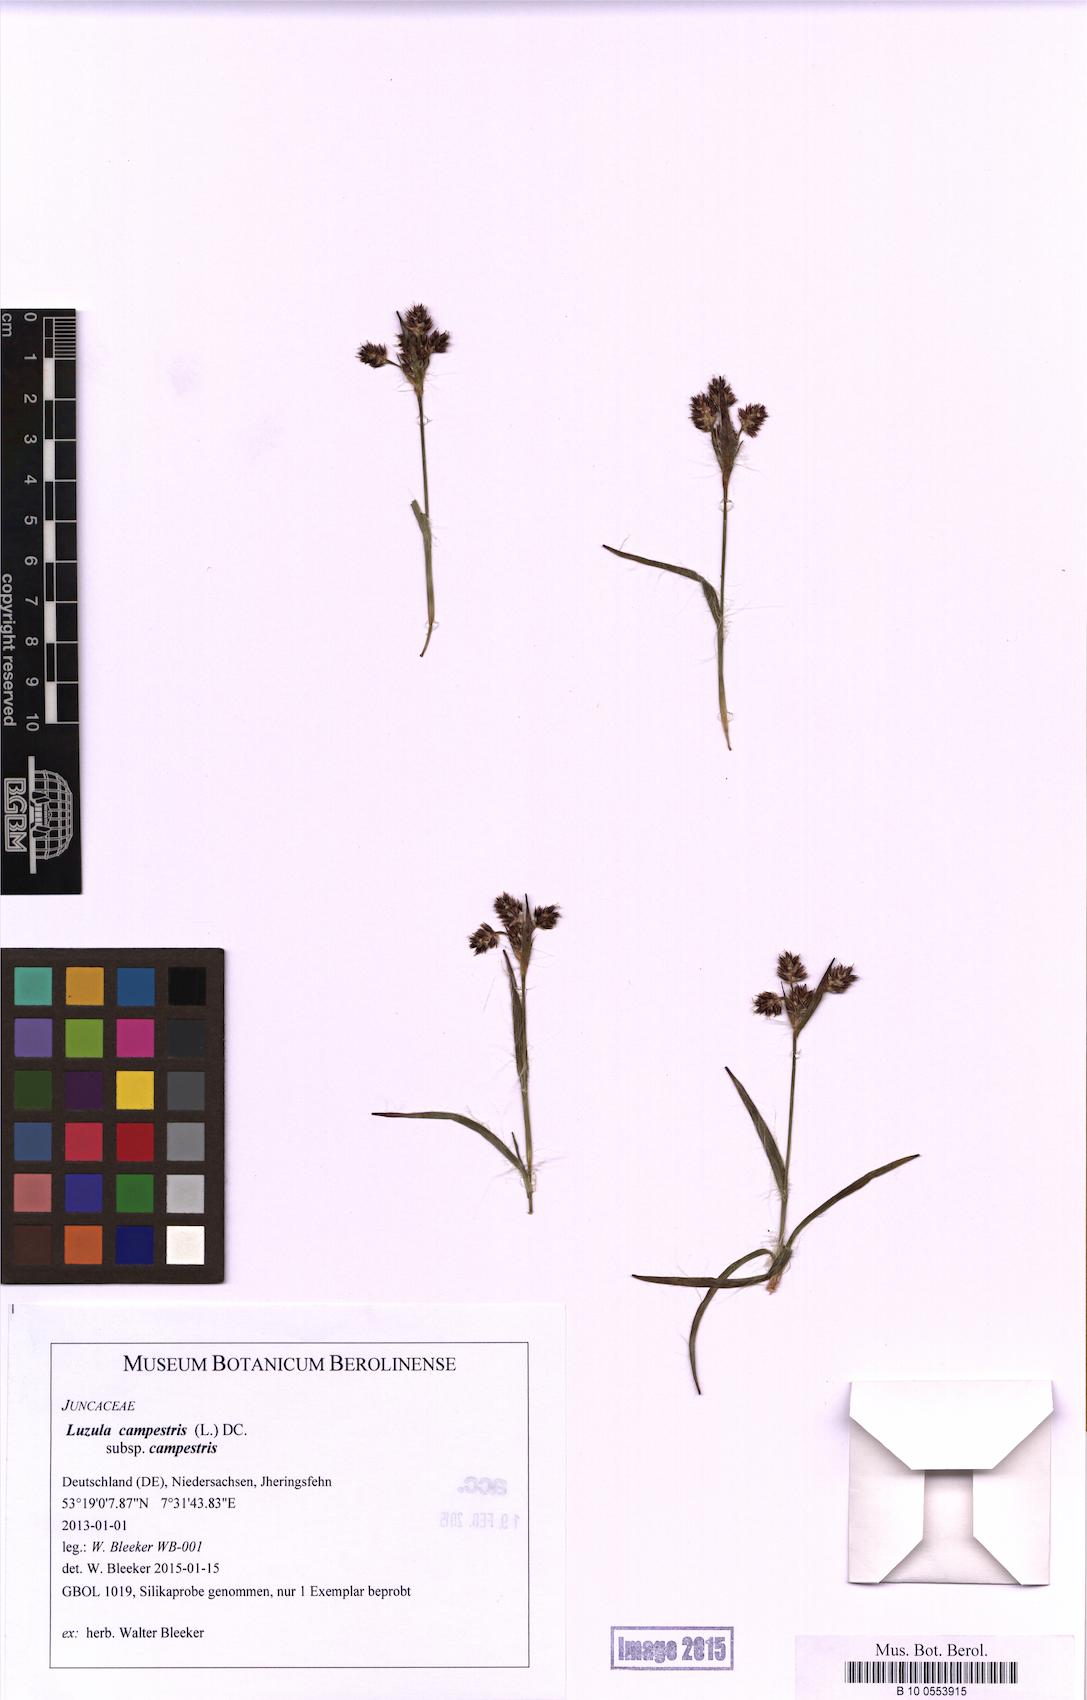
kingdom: Plantae
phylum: Tracheophyta
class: Liliopsida
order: Poales
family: Juncaceae
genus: Luzula
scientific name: Luzula campestris
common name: Field wood-rush
